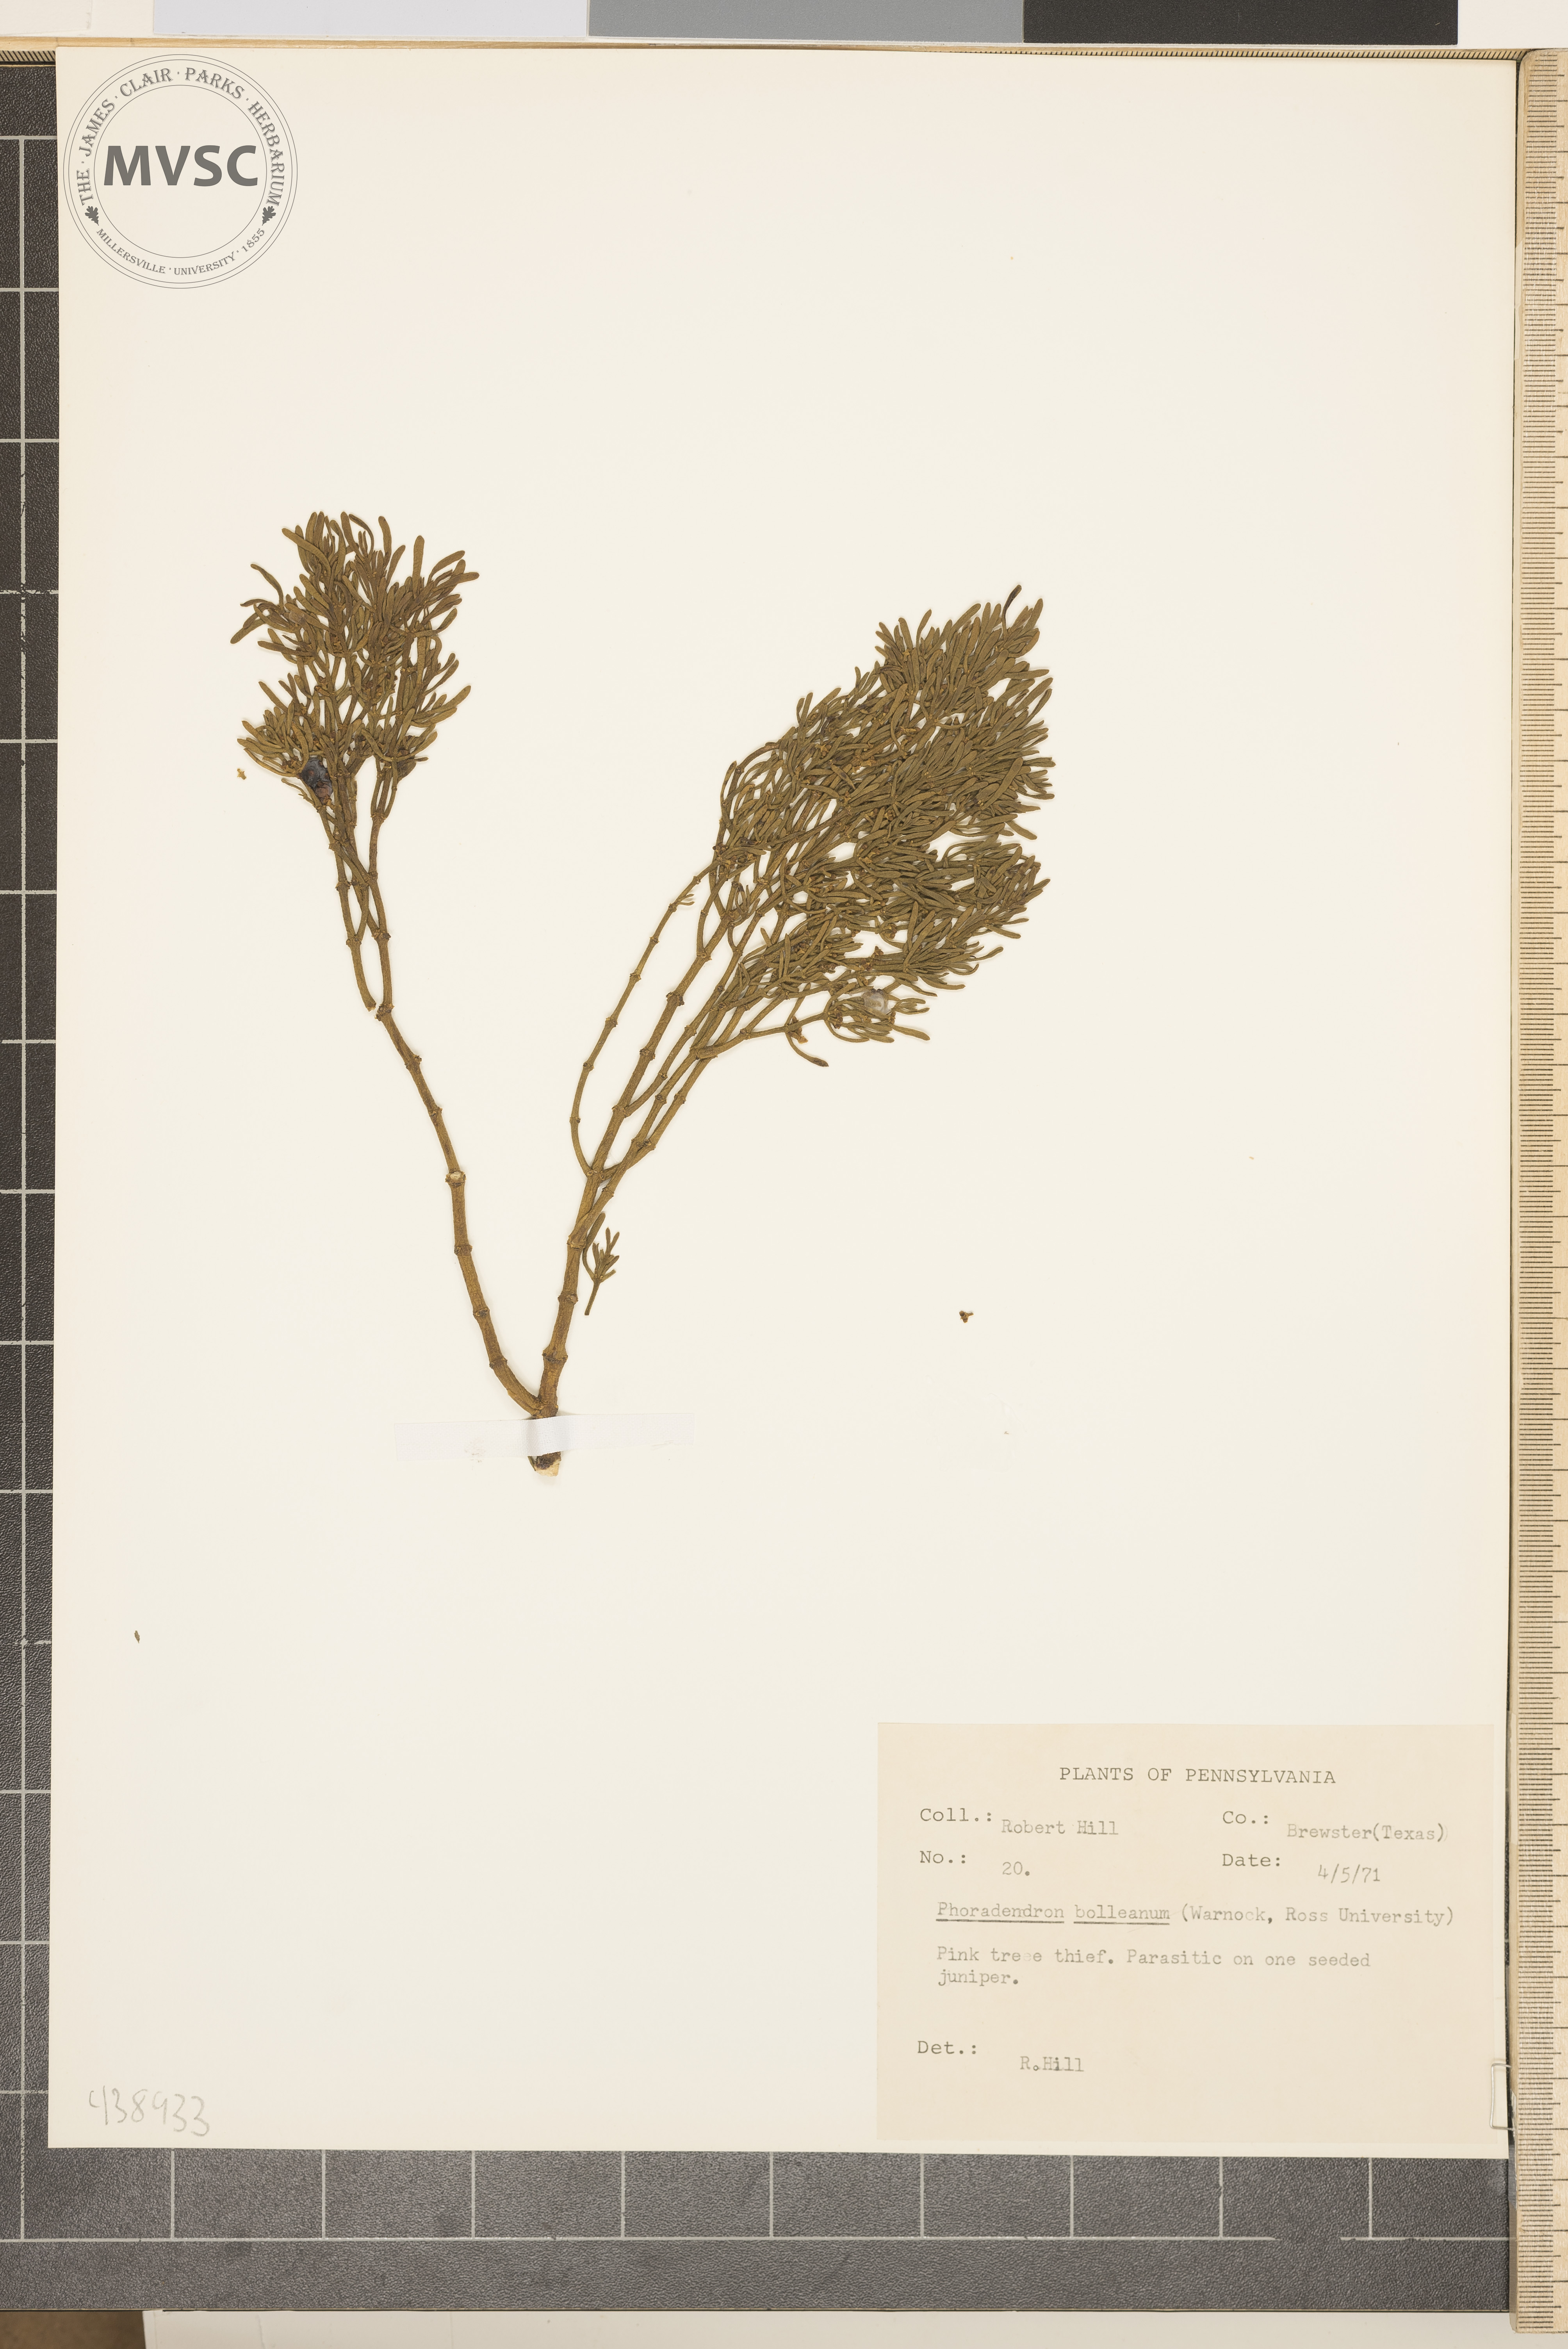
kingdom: Plantae
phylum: Tracheophyta
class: Magnoliopsida
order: Santalales
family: Viscaceae
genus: Phoradendron
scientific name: Phoradendron bolleanum
